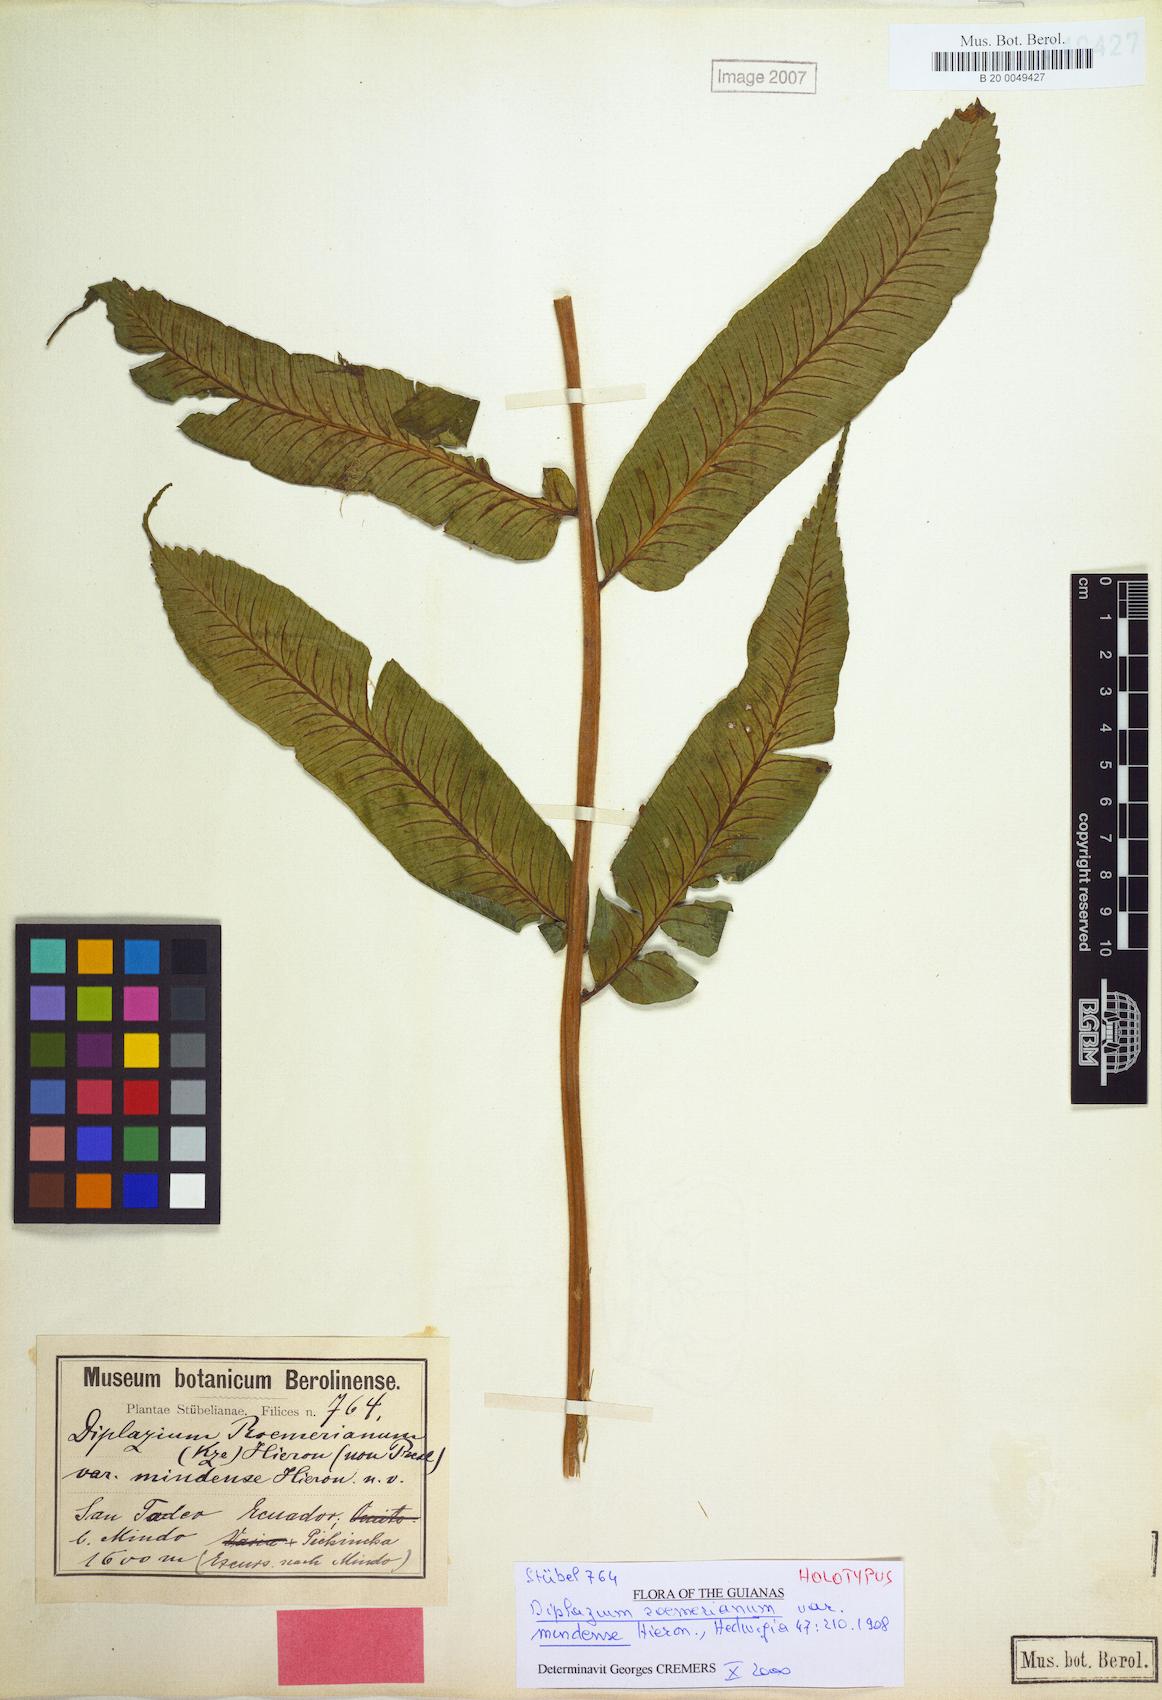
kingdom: Plantae
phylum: Tracheophyta
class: Polypodiopsida
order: Polypodiales
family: Athyriaceae
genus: Diplazium
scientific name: Diplazium roemerianum
